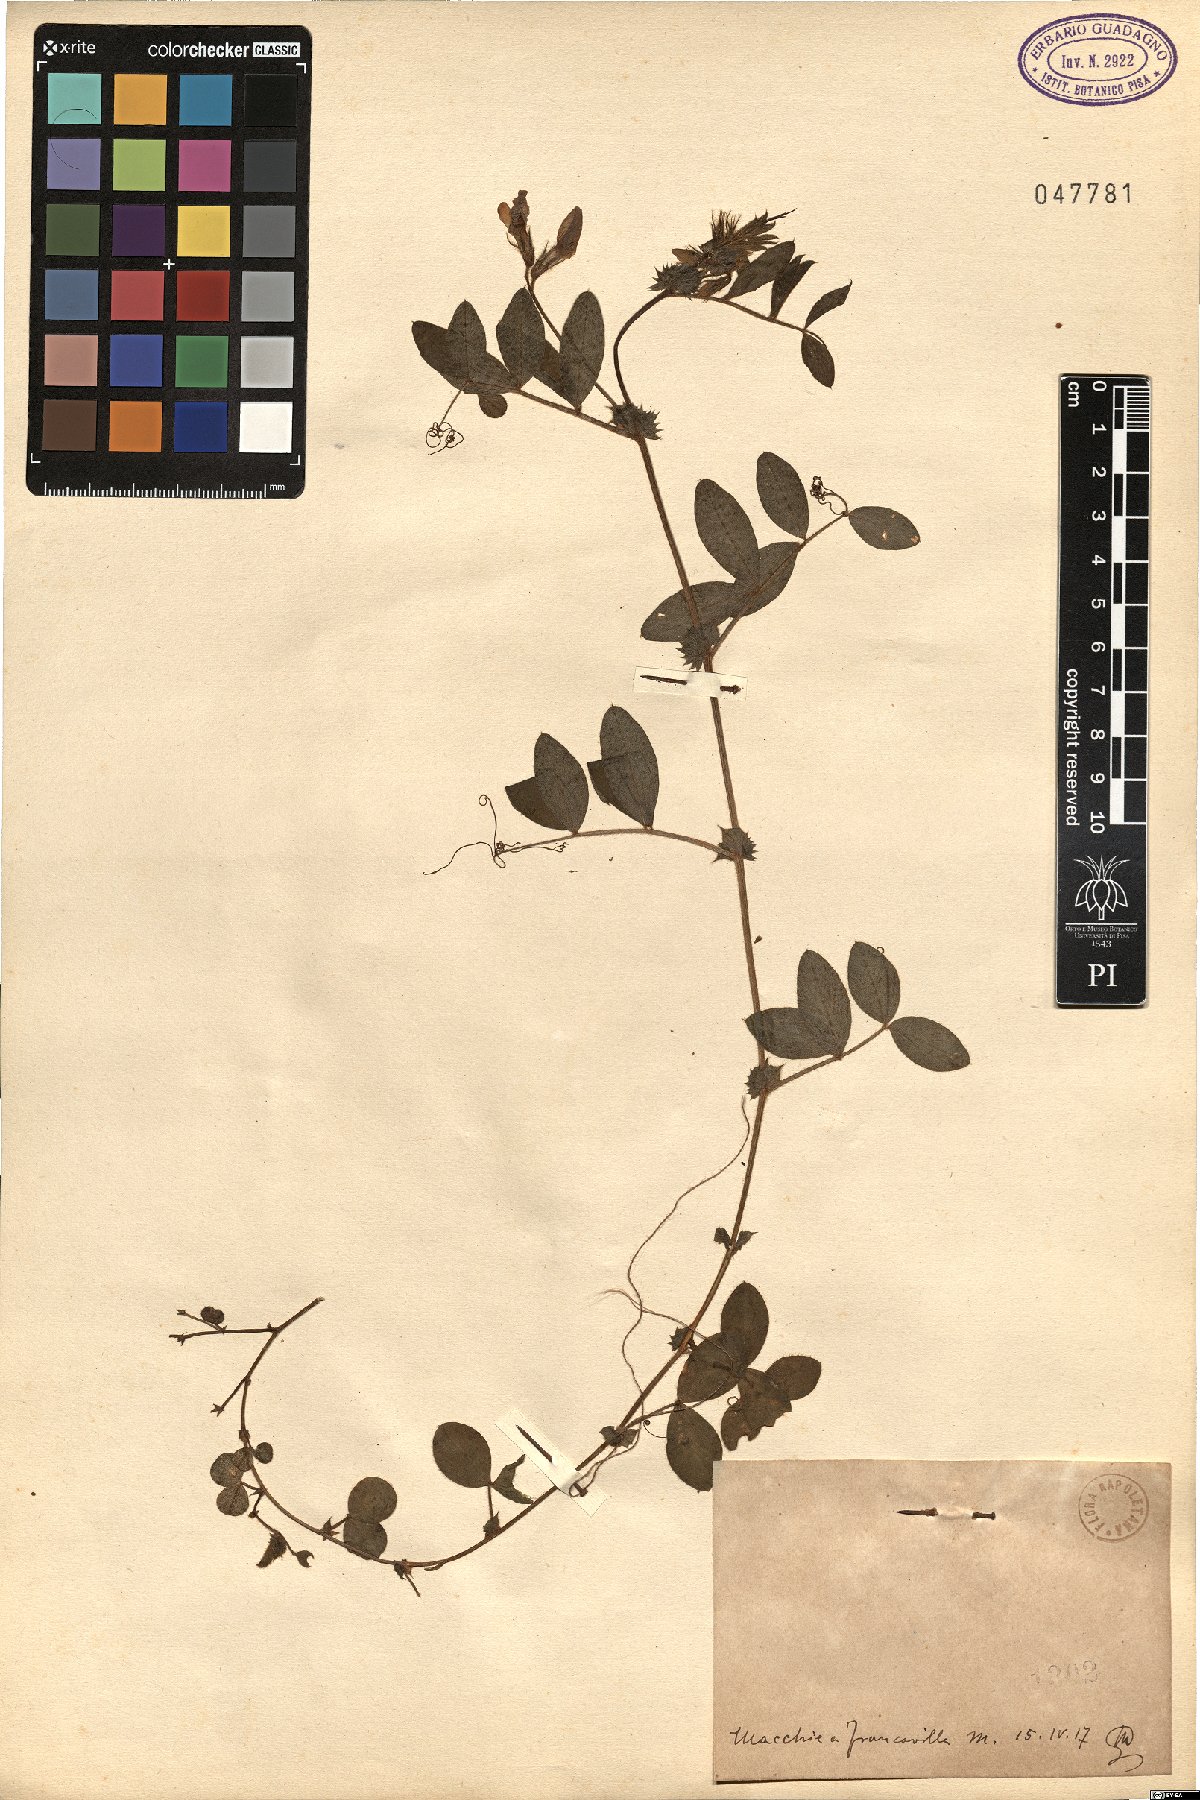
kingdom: Plantae
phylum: Tracheophyta
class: Magnoliopsida
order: Fabales
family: Fabaceae
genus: Vicia
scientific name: Vicia
